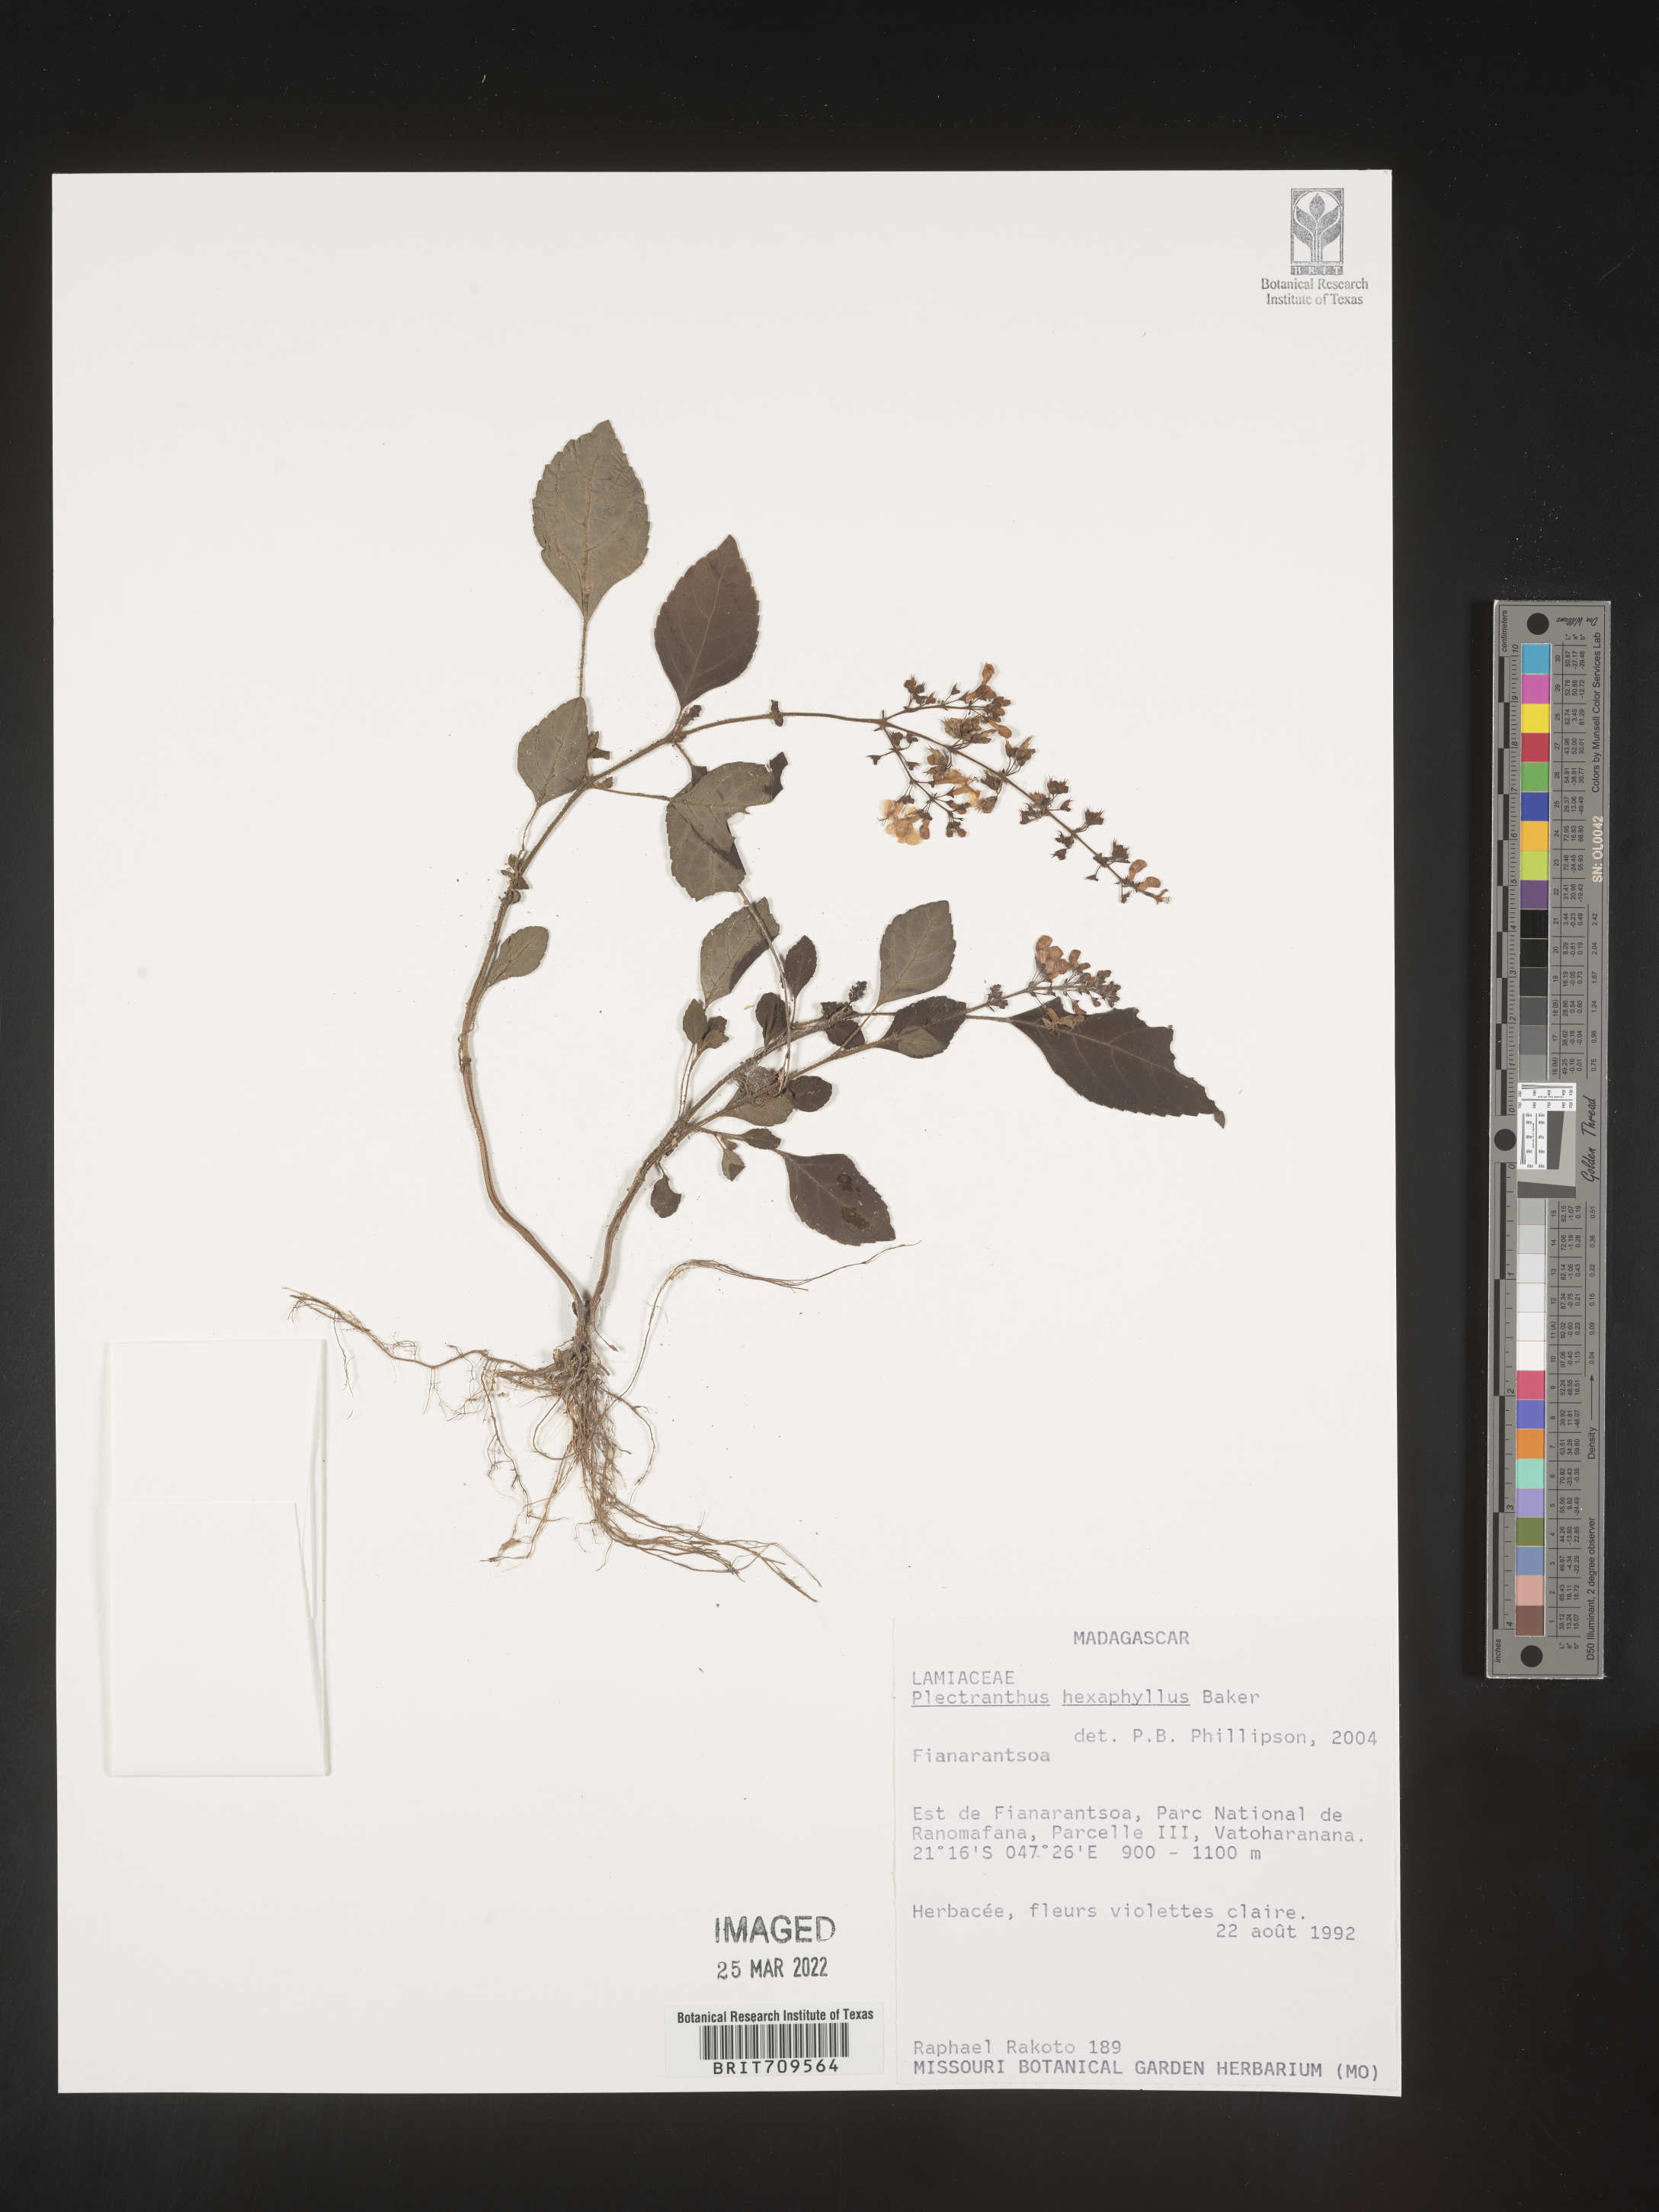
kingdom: Plantae
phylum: Tracheophyta
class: Magnoliopsida
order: Lamiales
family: Lamiaceae
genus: Plectranthus
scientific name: Plectranthus
